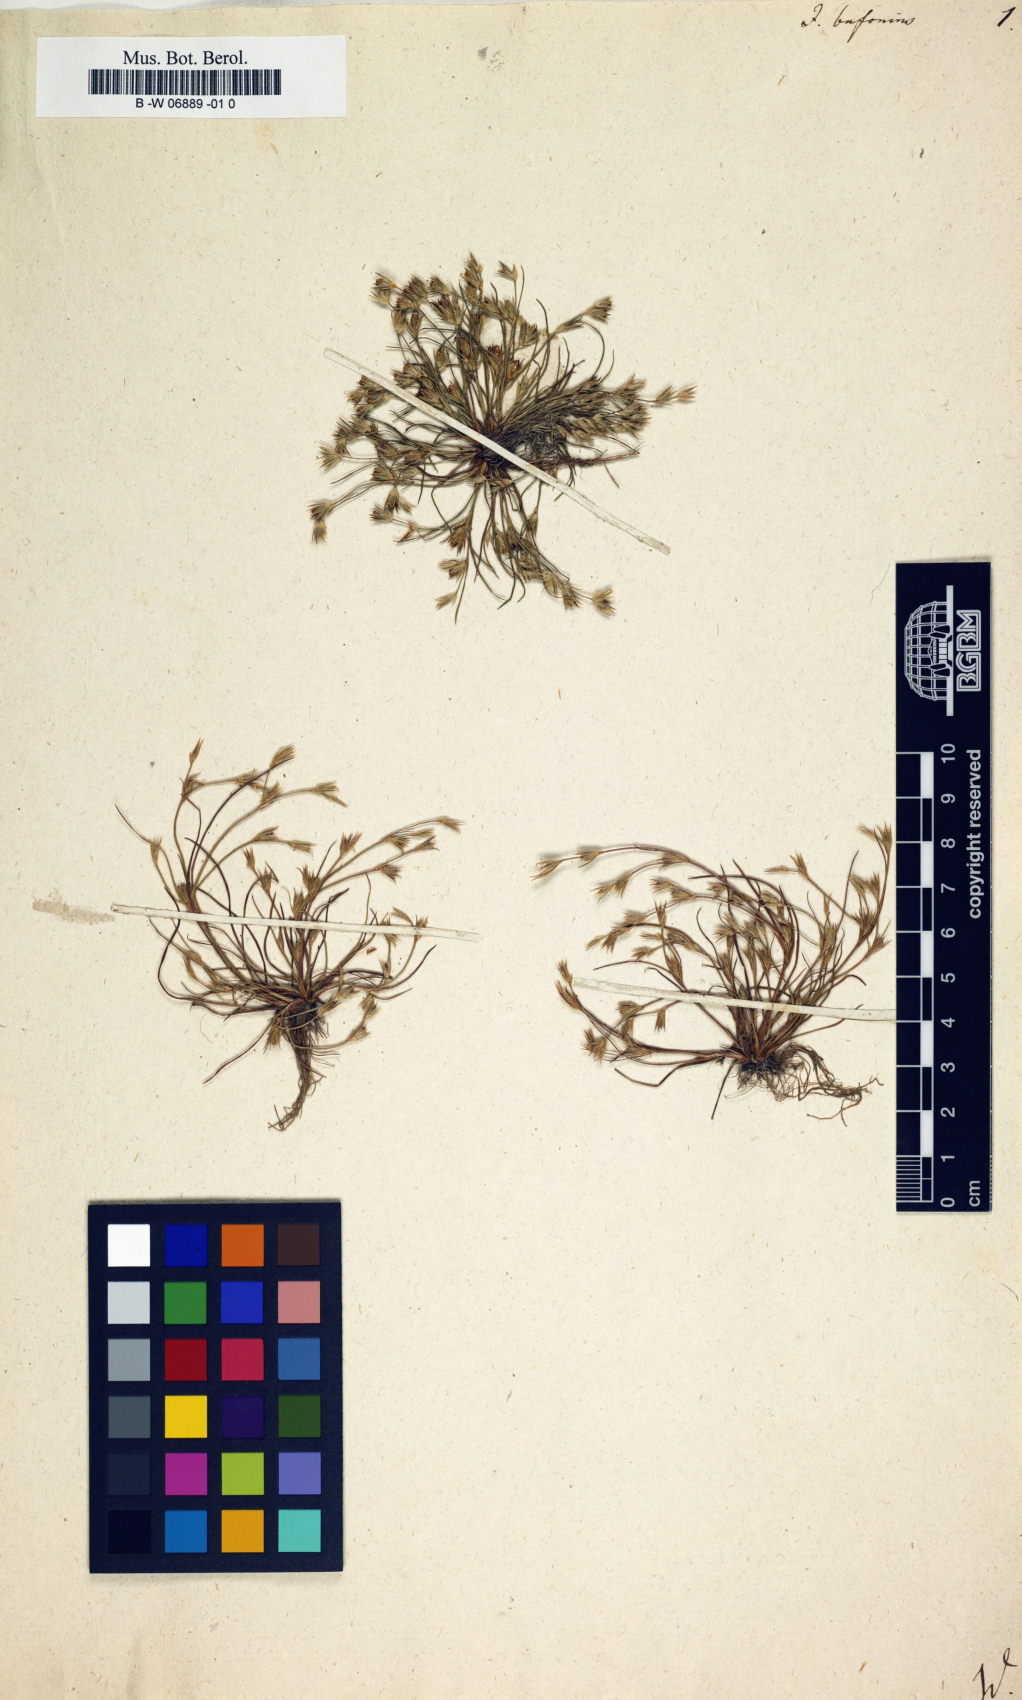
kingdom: Plantae
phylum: Tracheophyta
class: Liliopsida
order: Poales
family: Juncaceae
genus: Juncus
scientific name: Juncus bufonius
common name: Toad rush
